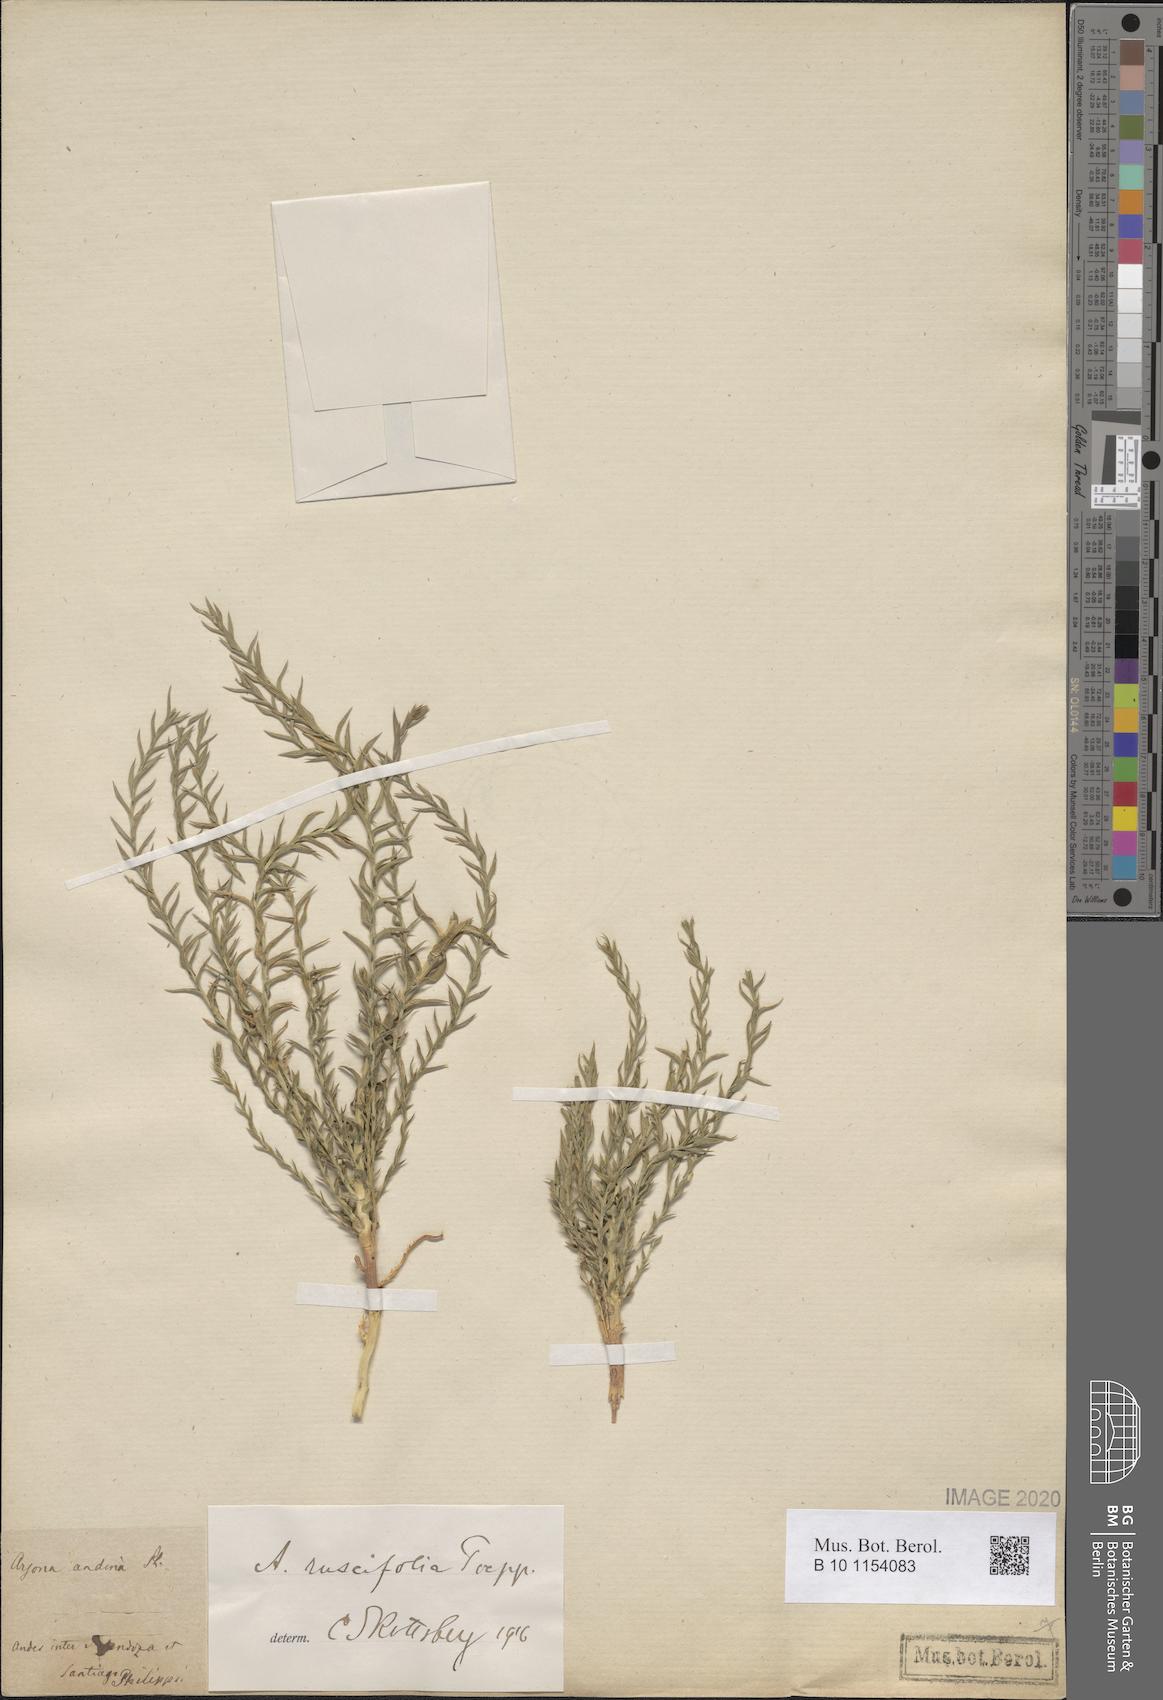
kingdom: Plantae
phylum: Tracheophyta
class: Magnoliopsida
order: Santalales
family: Schoepfiaceae
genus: Arjona
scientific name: Arjona patagonica
